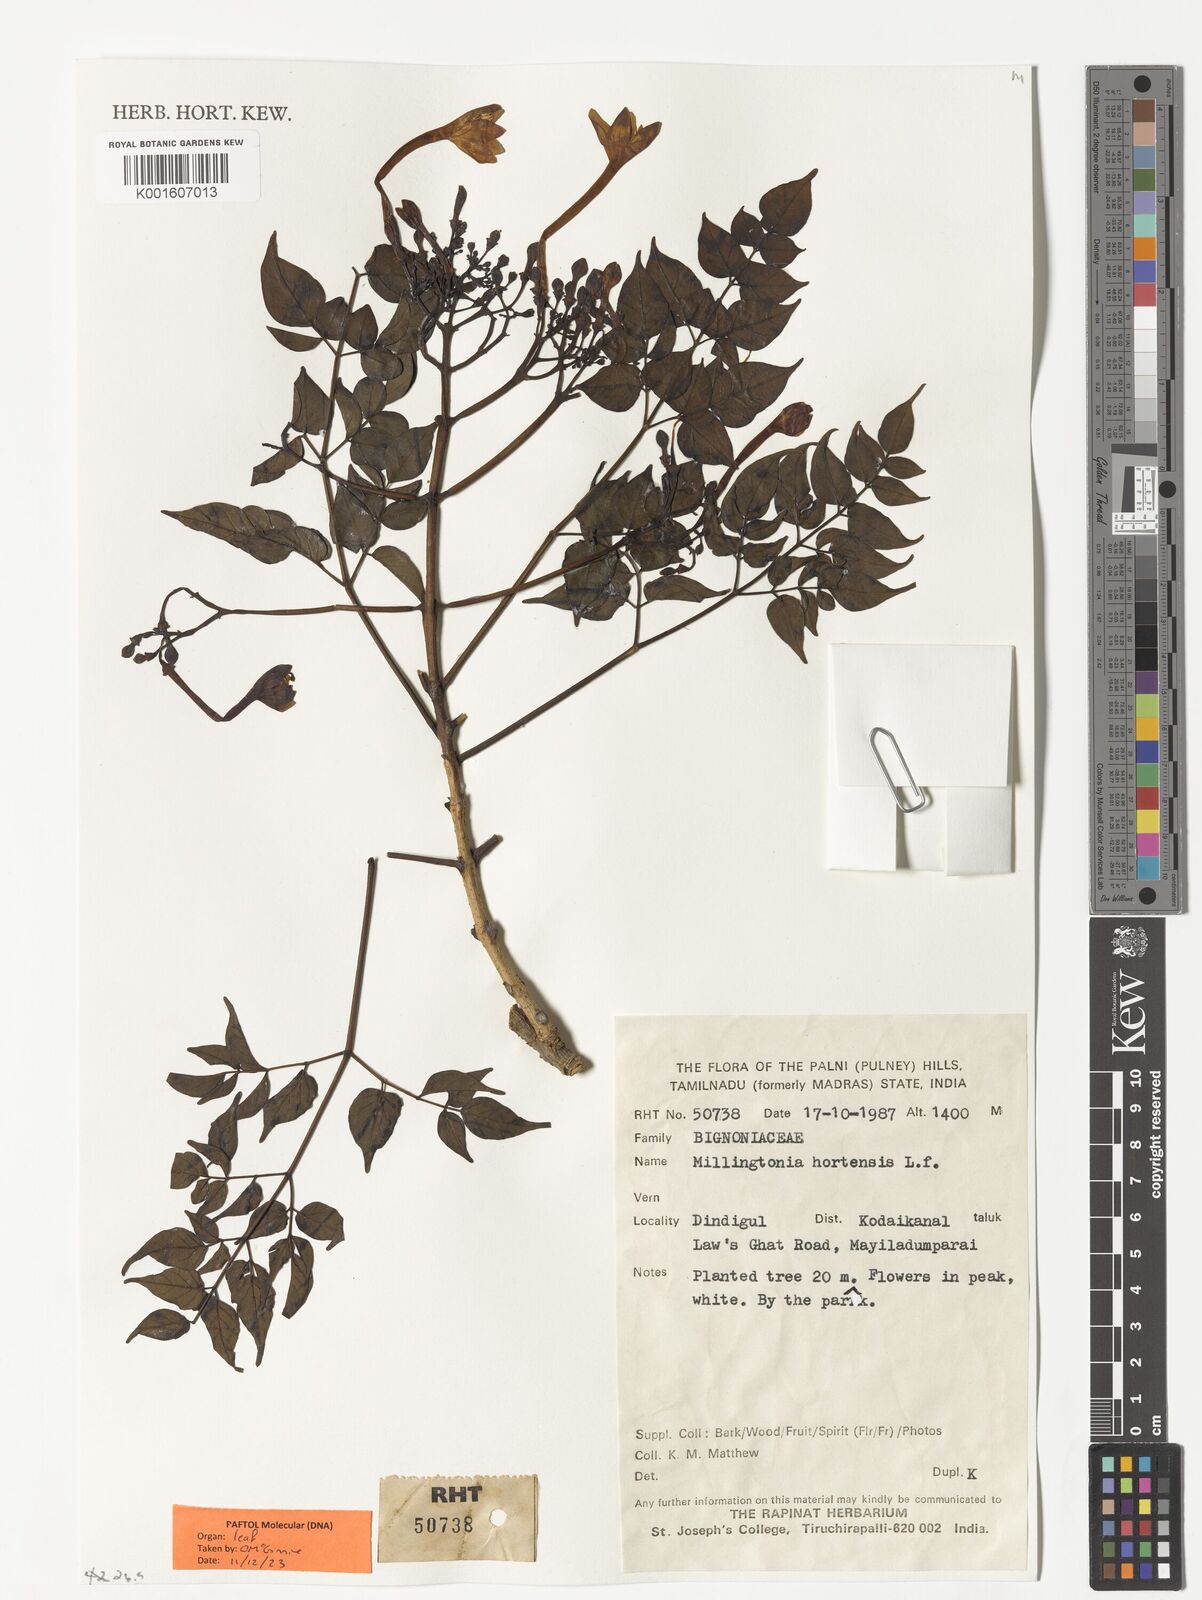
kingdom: Plantae
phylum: Tracheophyta
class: Magnoliopsida
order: Lamiales
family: Bignoniaceae
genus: Millingtonia
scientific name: Millingtonia hortensis
